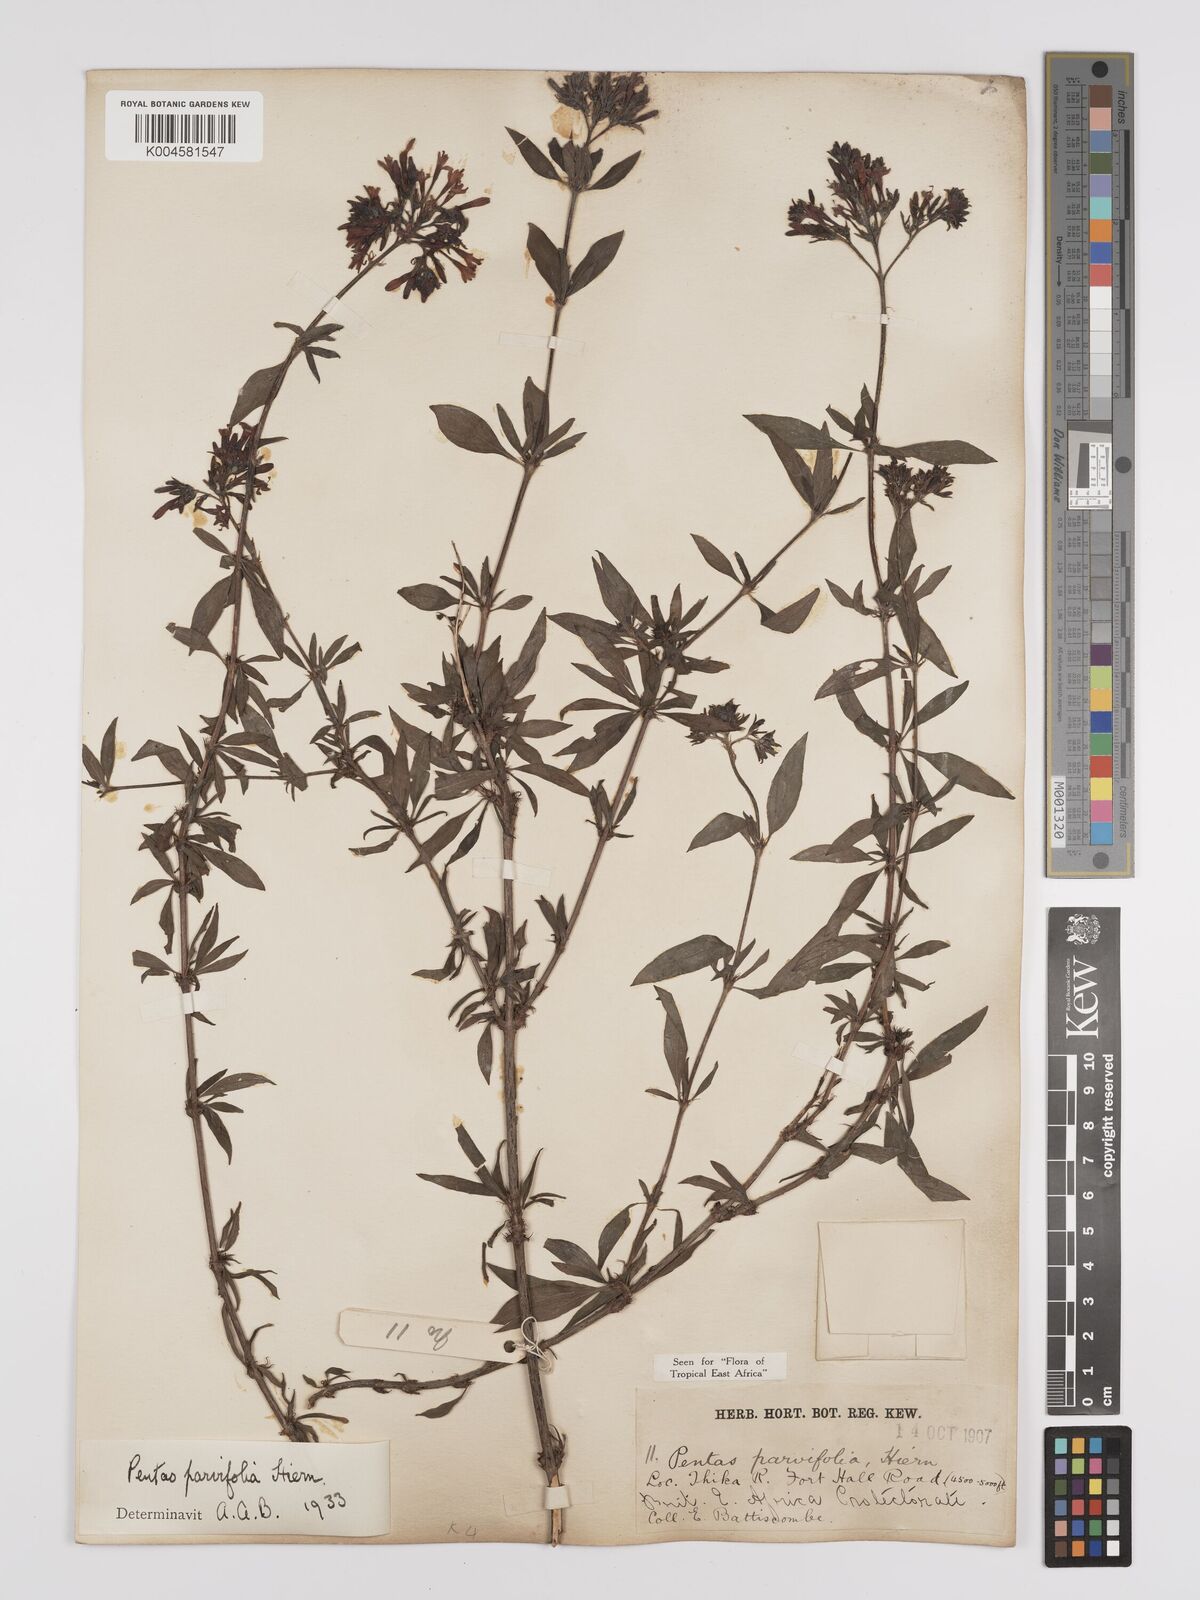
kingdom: Plantae
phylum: Tracheophyta
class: Magnoliopsida
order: Gentianales
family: Rubiaceae
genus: Rhodopentas
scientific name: Rhodopentas parvifolia
